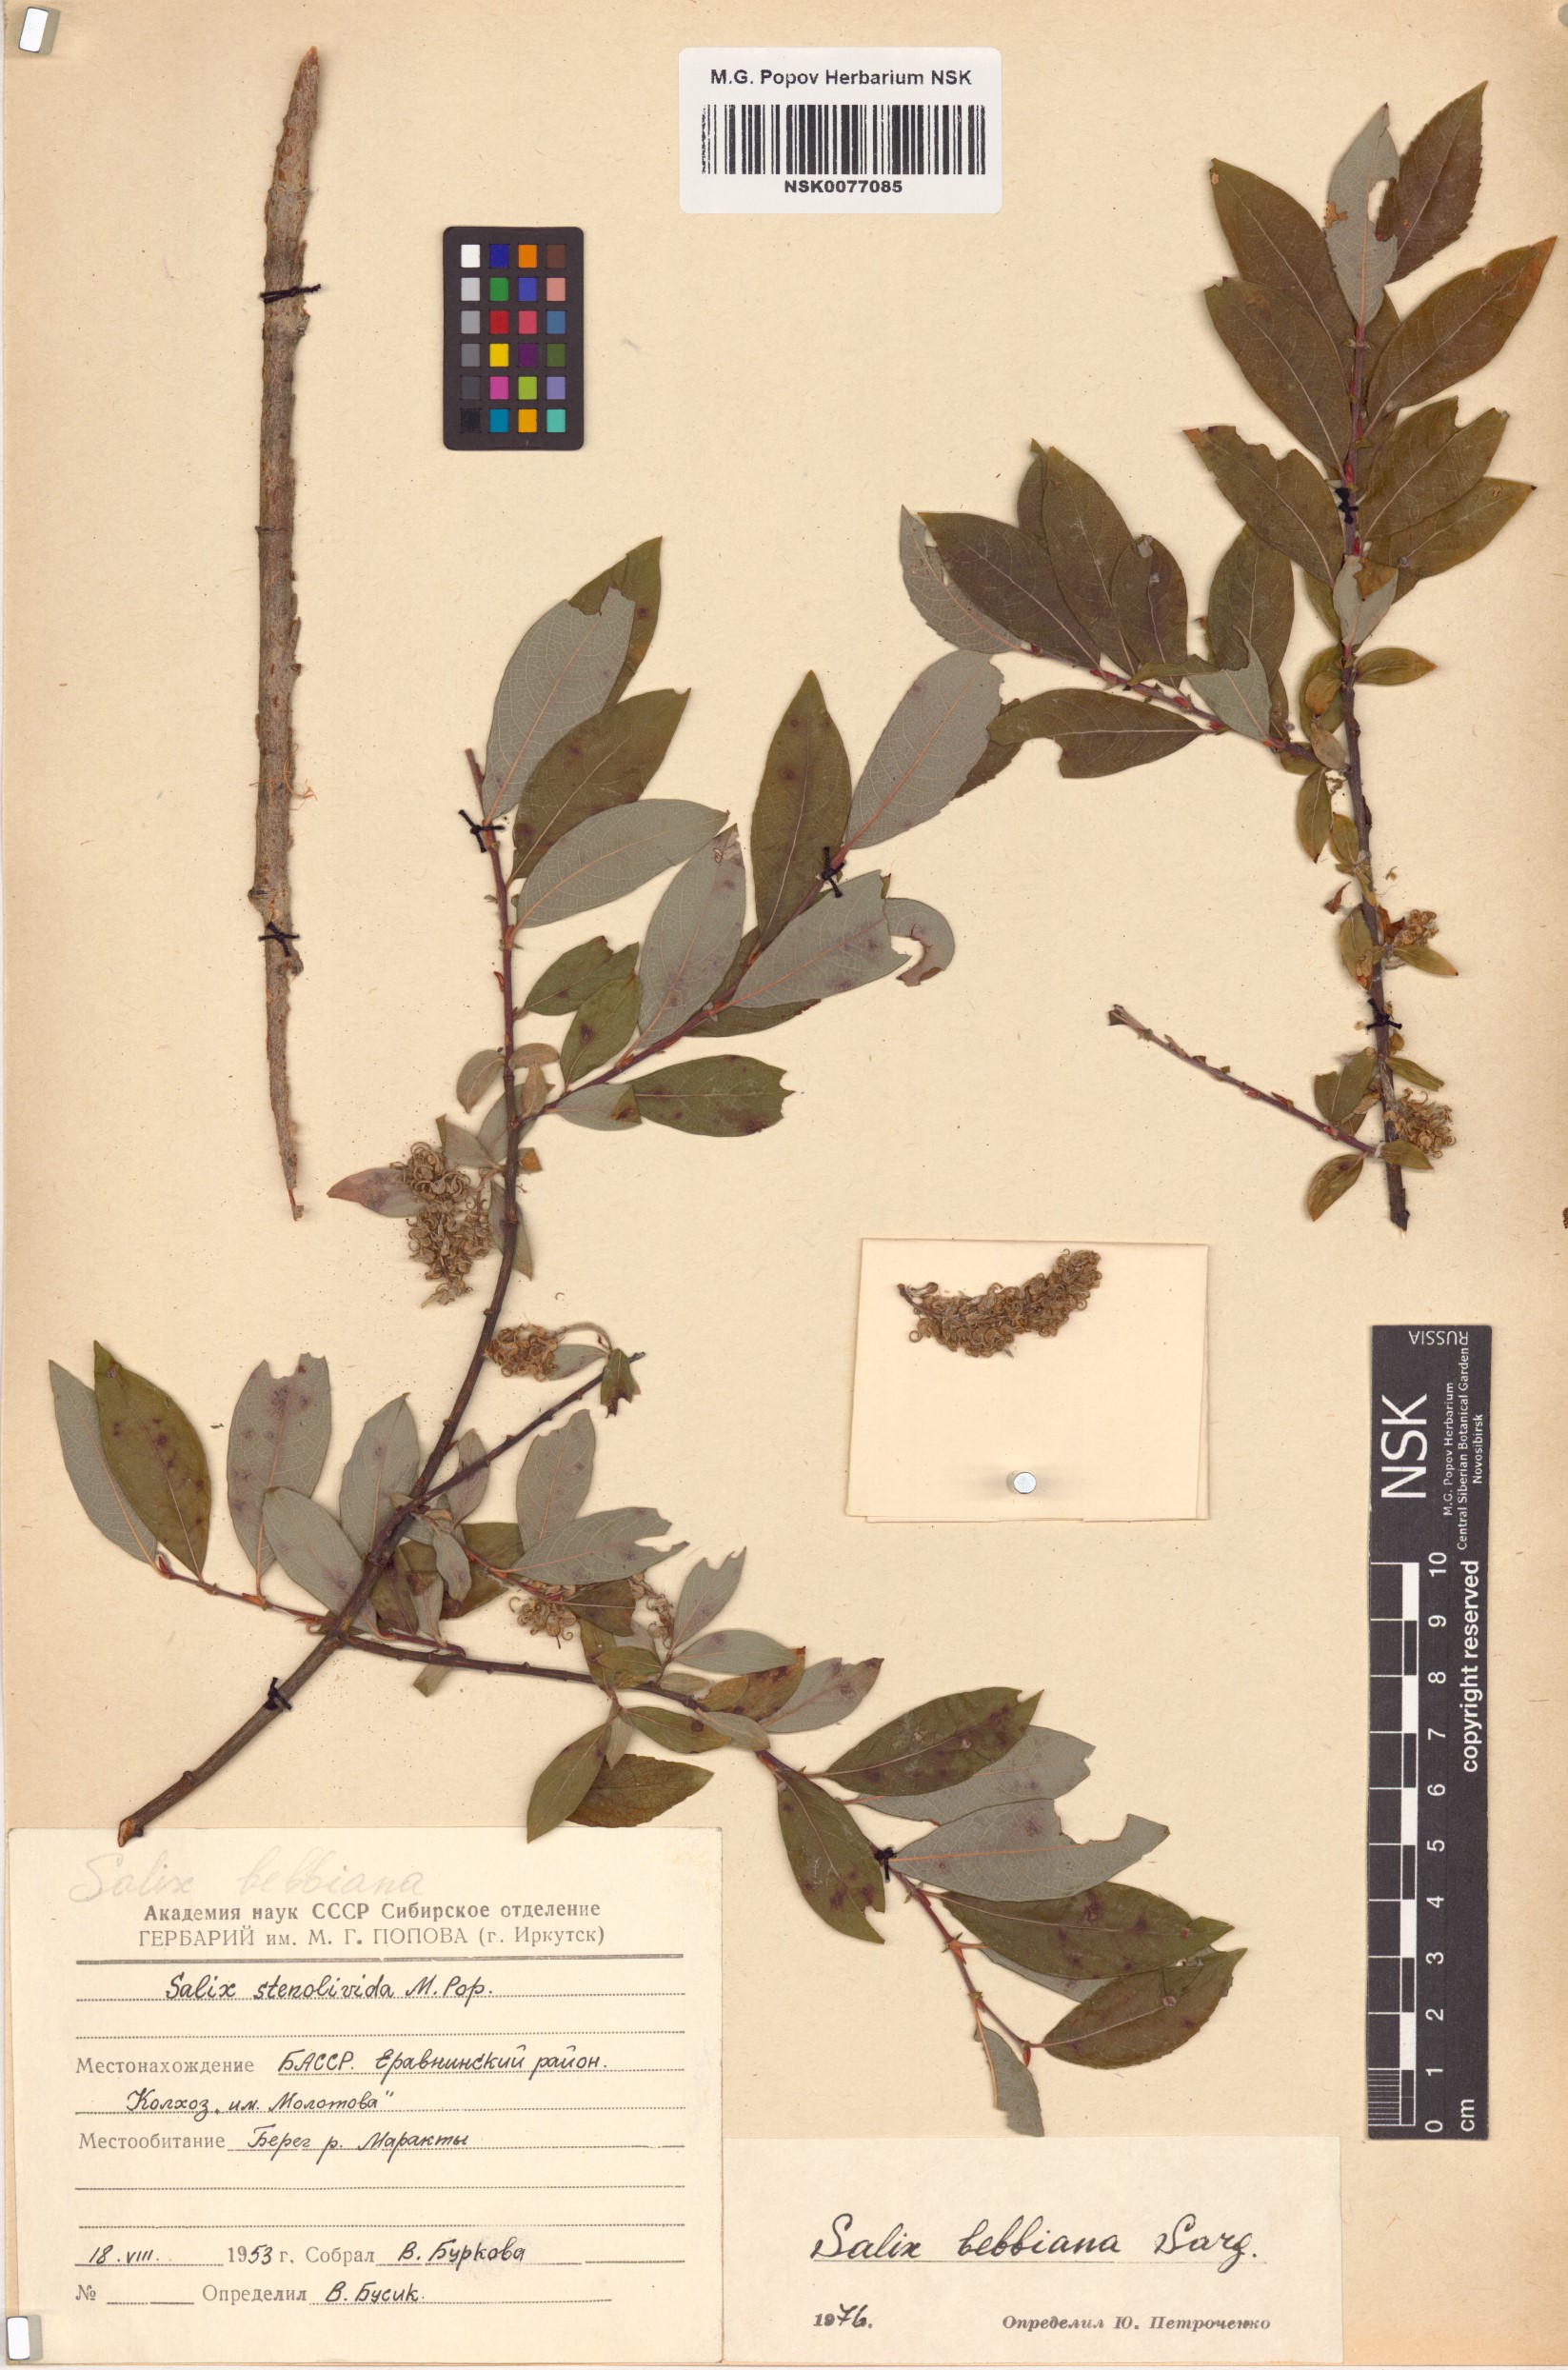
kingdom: Plantae
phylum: Tracheophyta
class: Magnoliopsida
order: Malpighiales
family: Salicaceae
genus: Salix
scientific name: Salix bebbiana
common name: Bebb's willow
